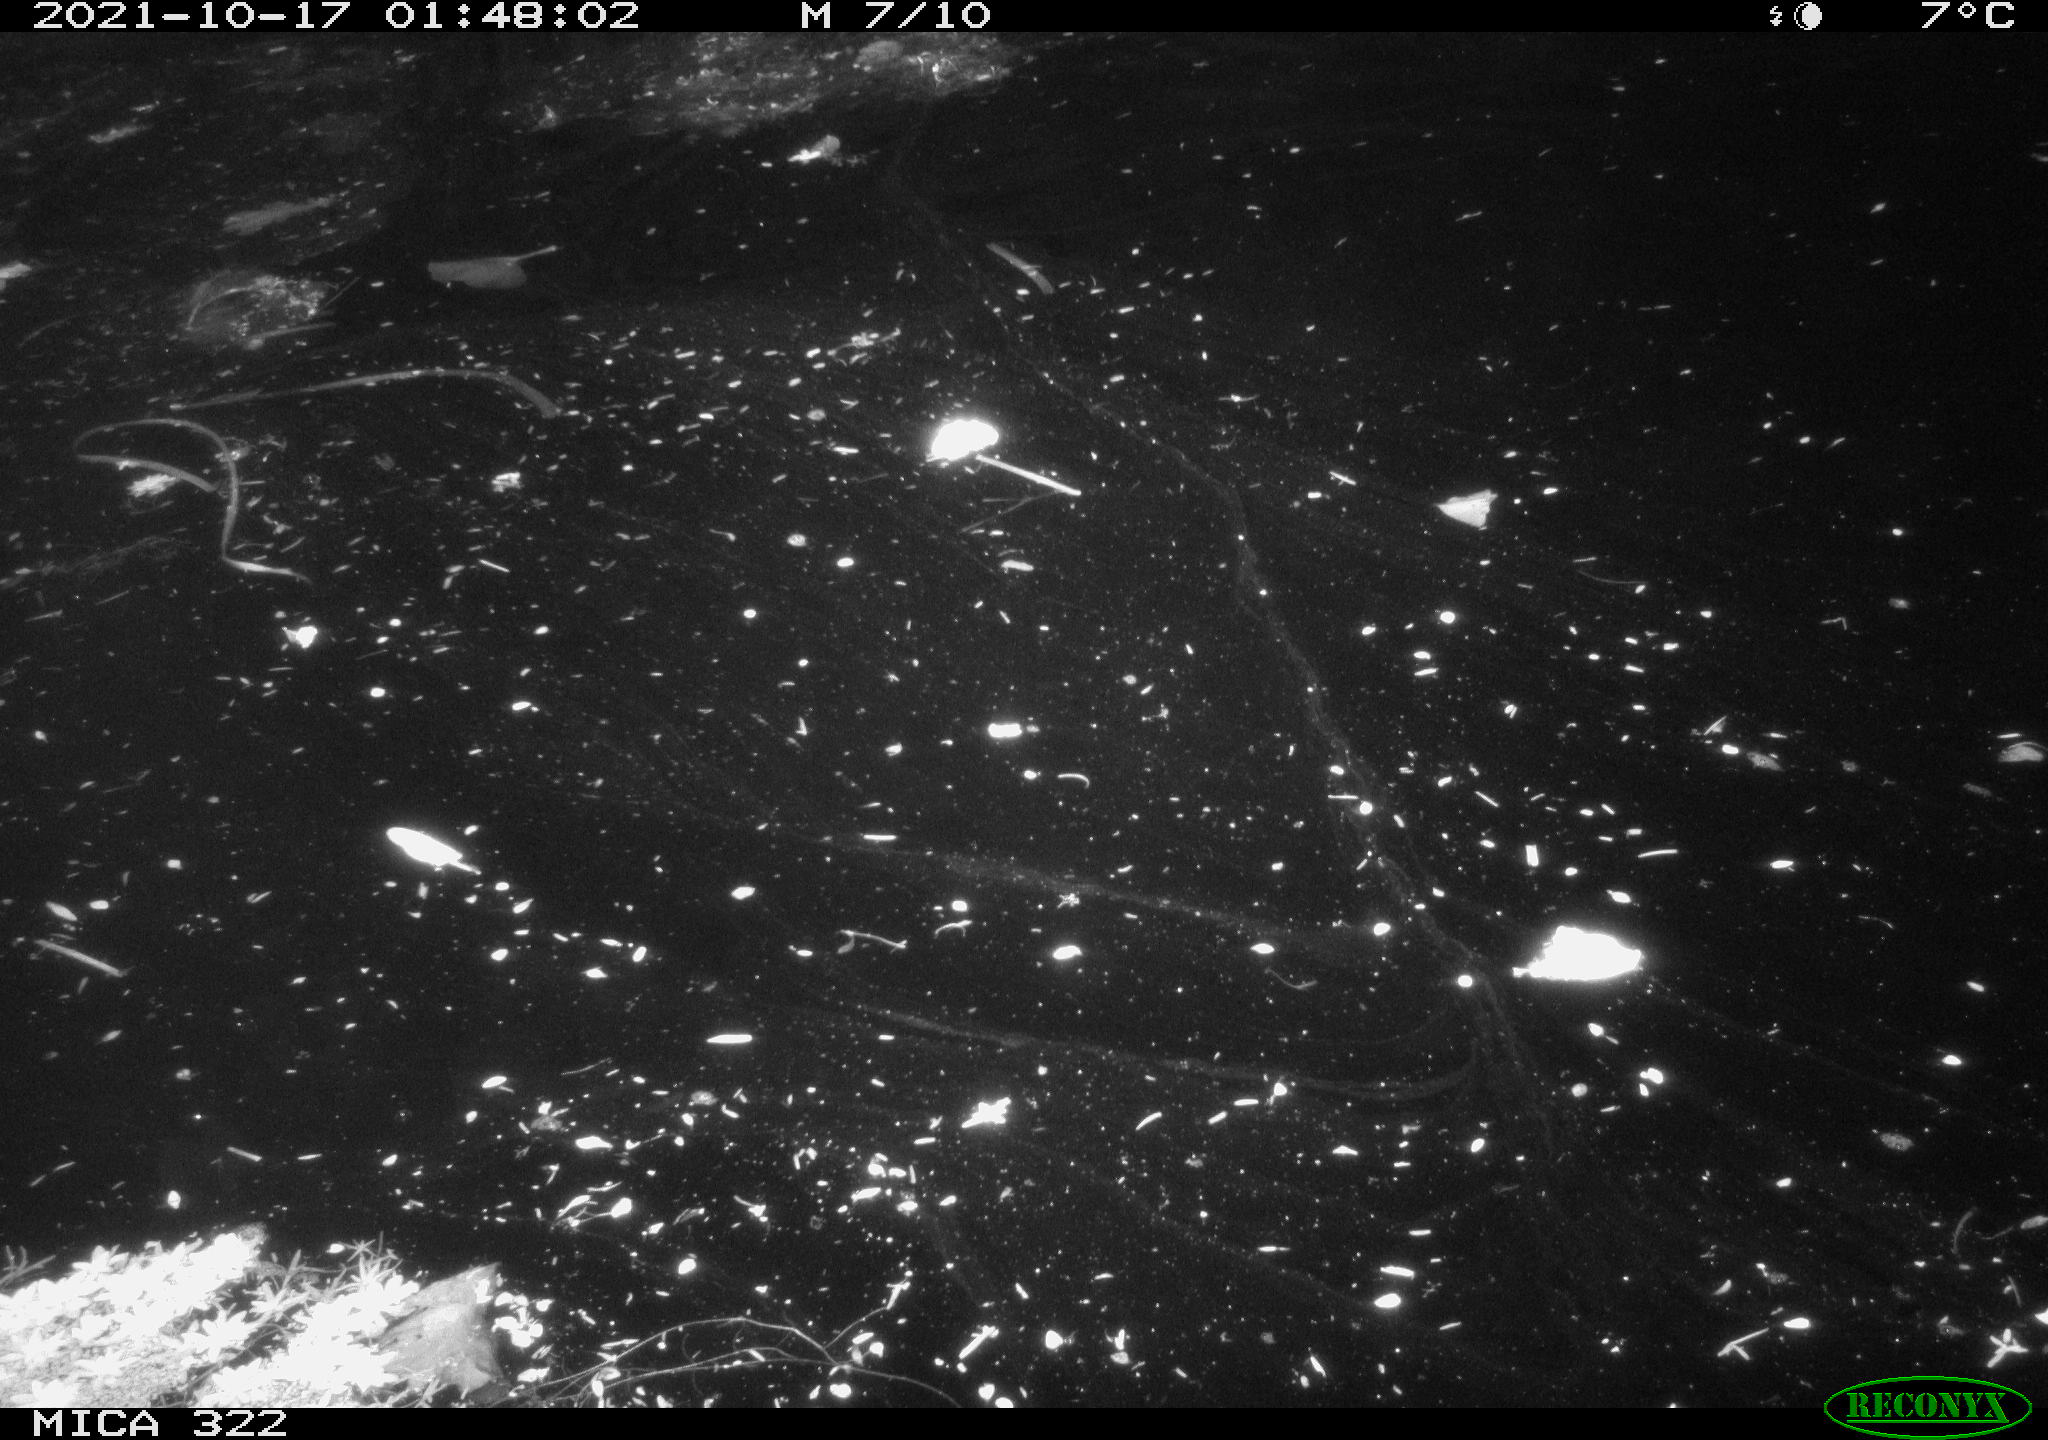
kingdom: Animalia
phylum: Chordata
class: Mammalia
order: Rodentia
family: Muridae
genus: Rattus
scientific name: Rattus norvegicus
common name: Brown rat
